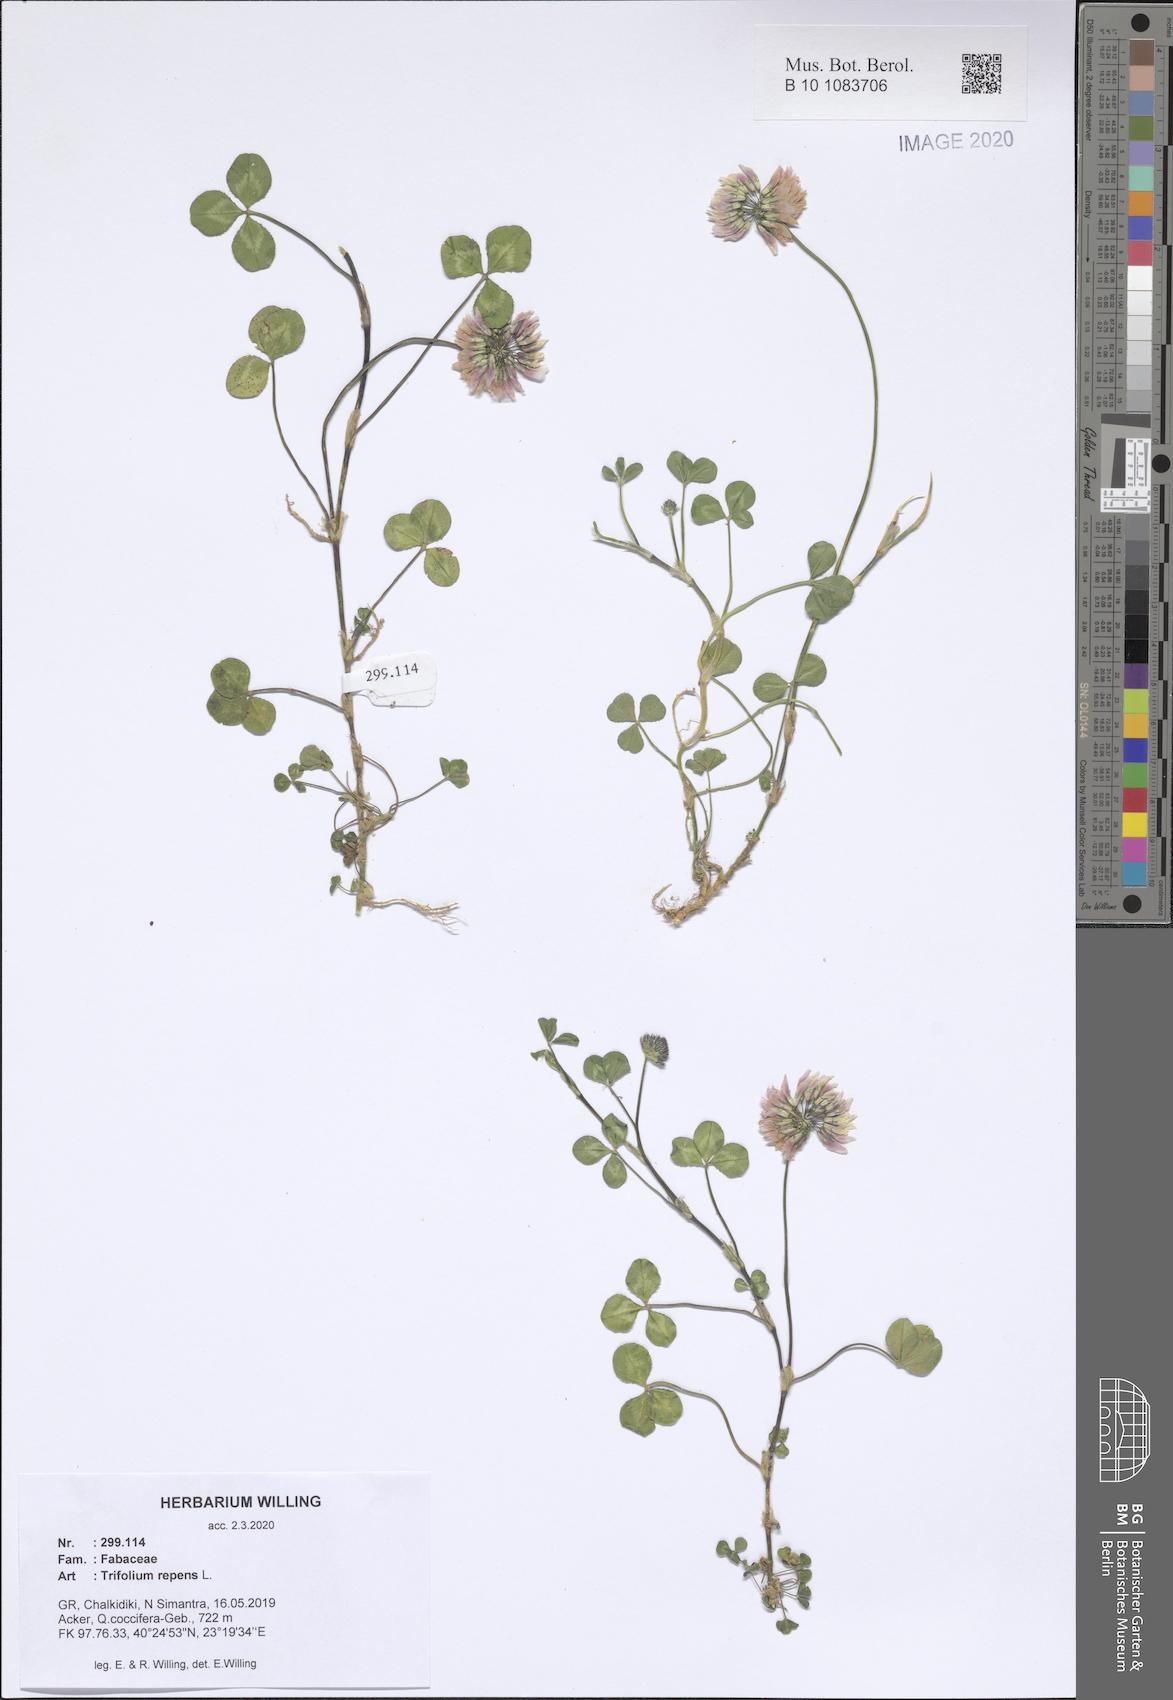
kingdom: Plantae
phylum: Tracheophyta
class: Magnoliopsida
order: Fabales
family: Fabaceae
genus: Trifolium
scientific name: Trifolium repens
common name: White clover
